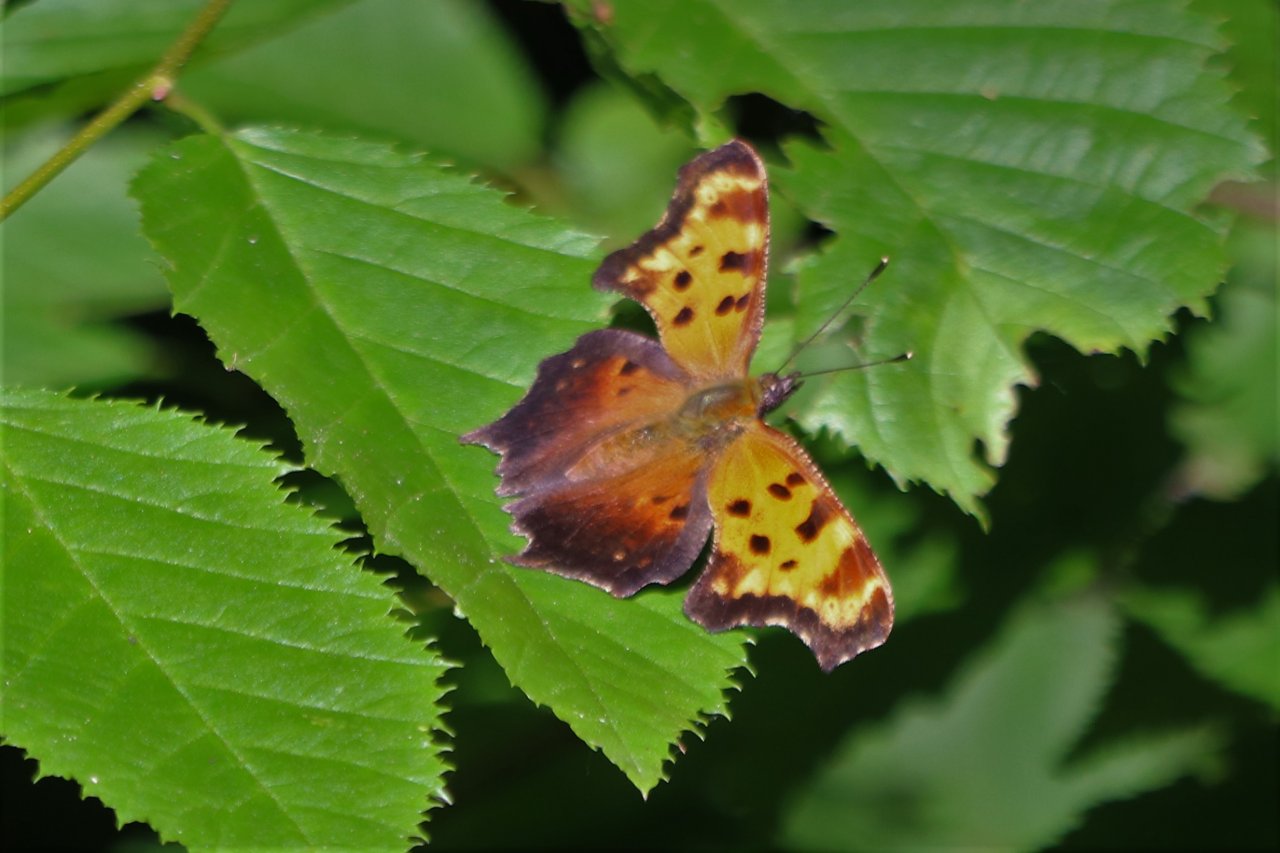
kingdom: Animalia
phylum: Arthropoda
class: Insecta
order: Lepidoptera
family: Nymphalidae
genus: Polygonia
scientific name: Polygonia comma
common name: Eastern Comma
